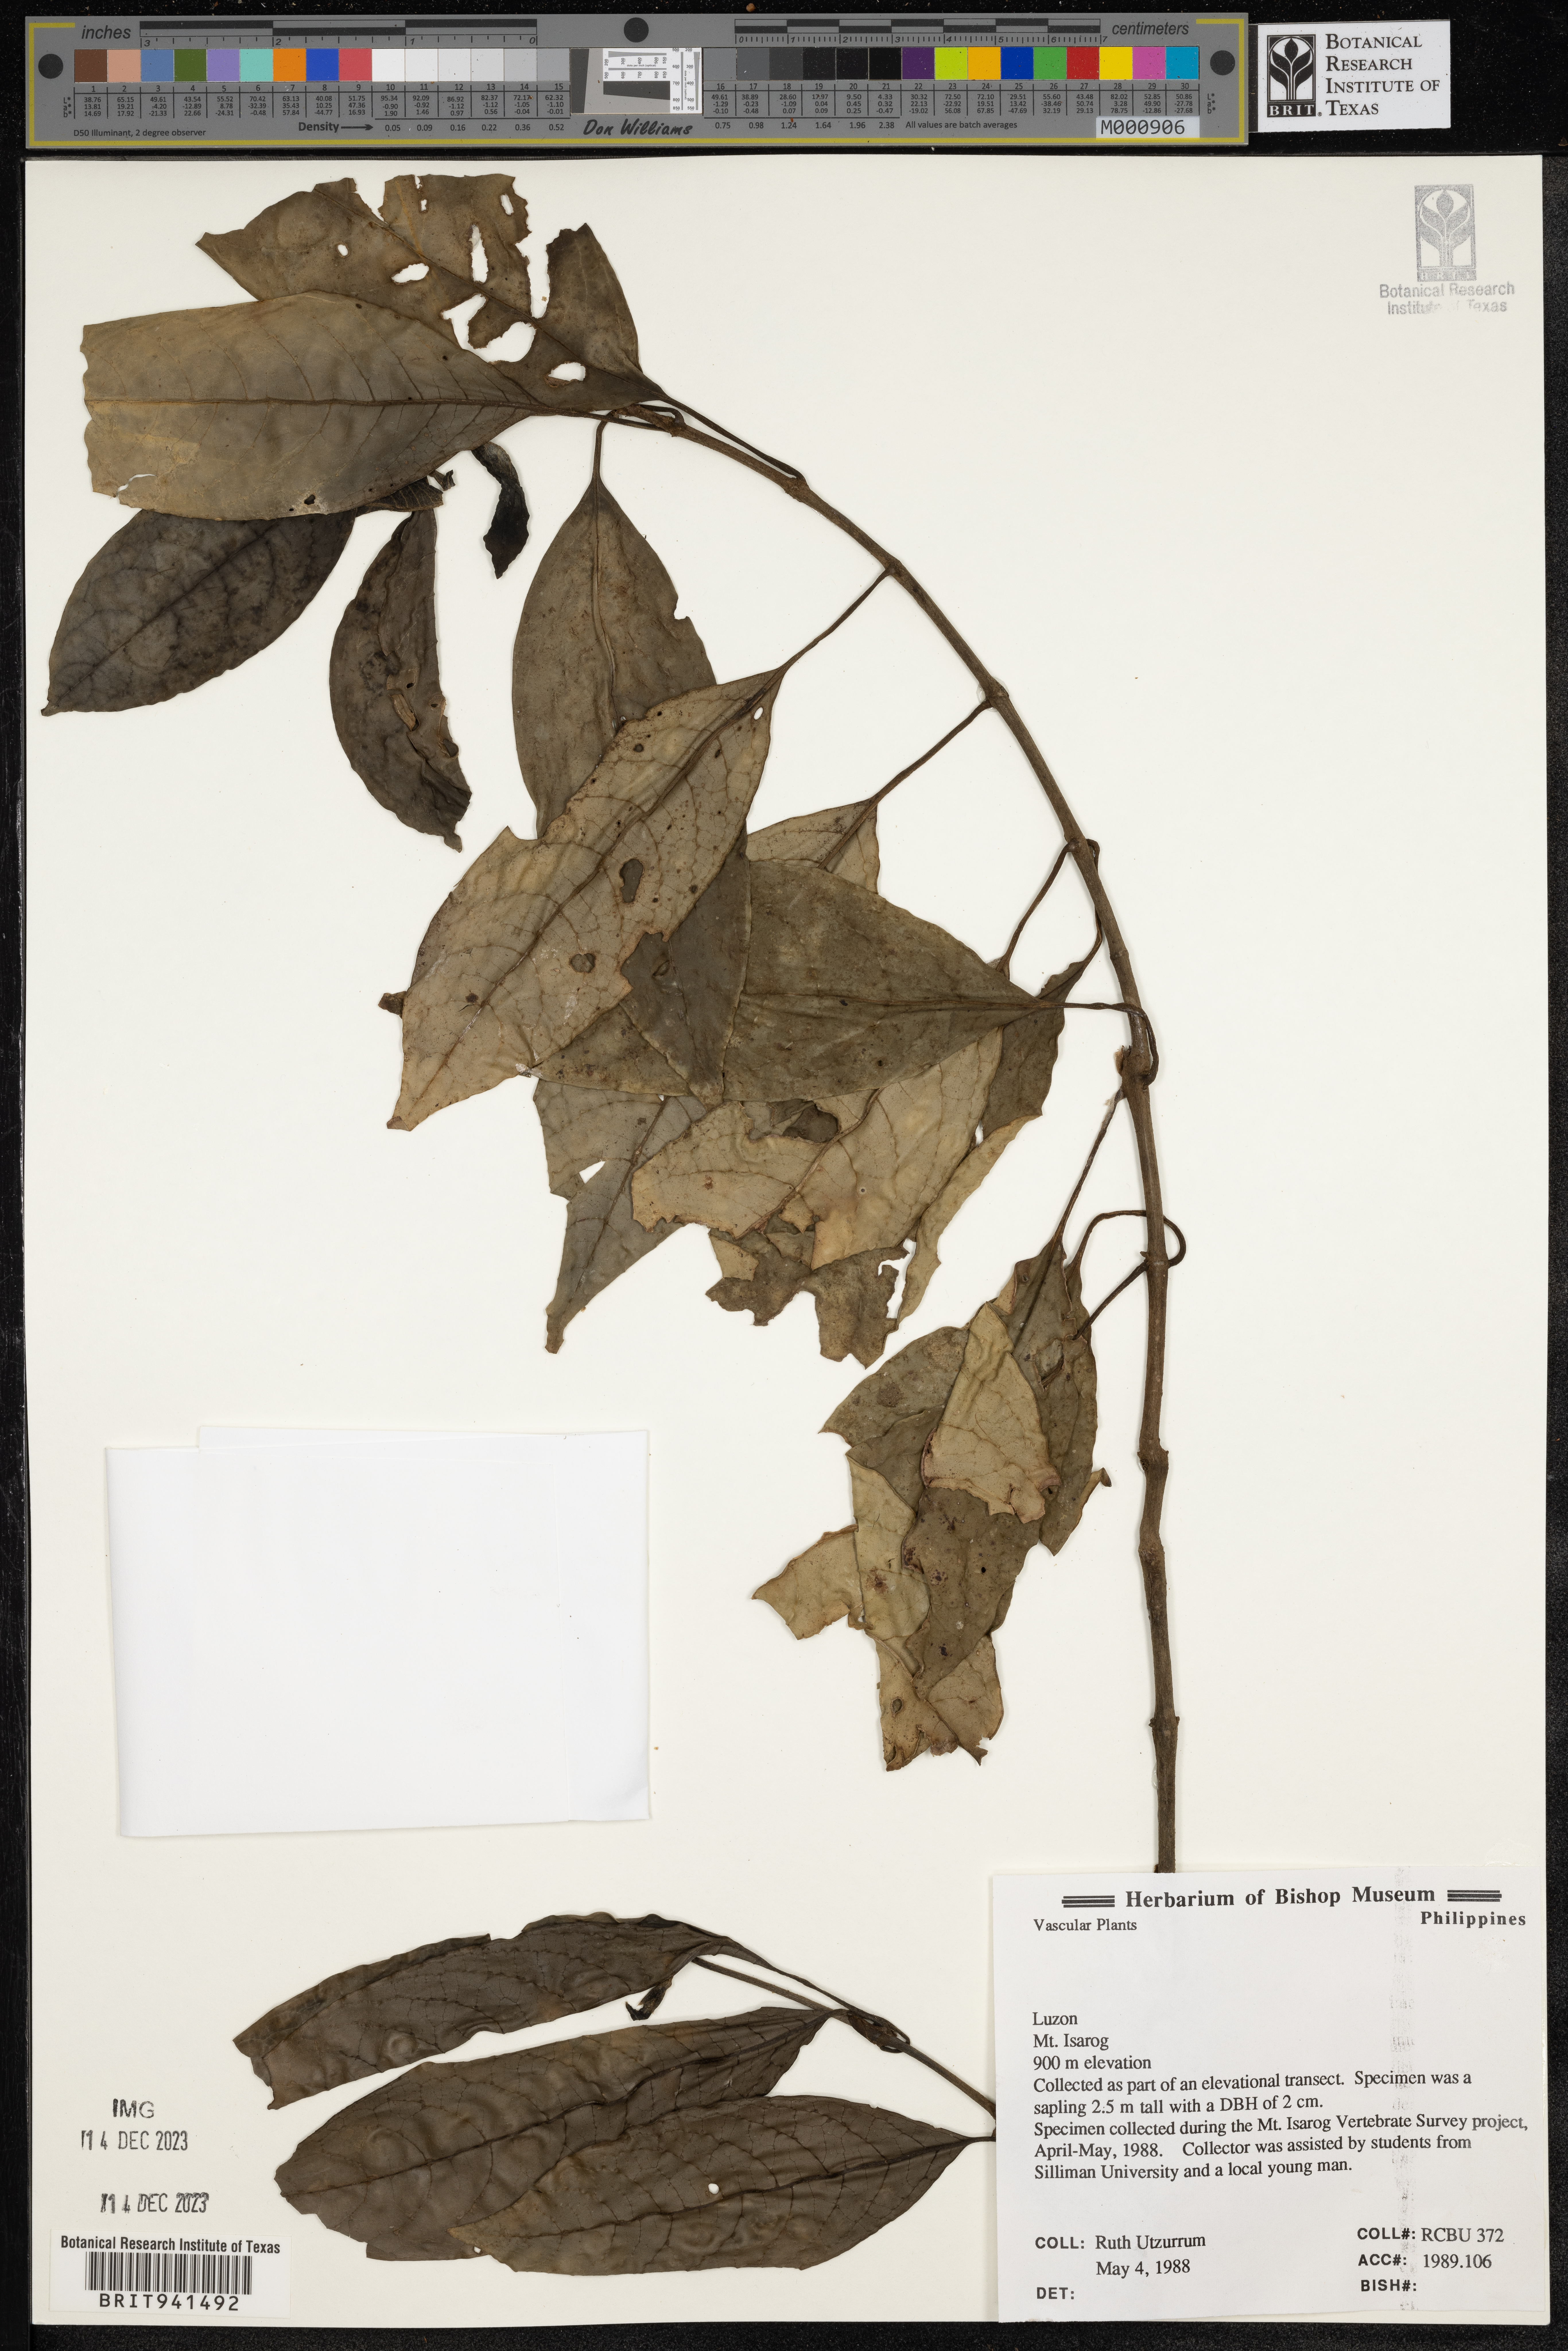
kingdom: Plantae
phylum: Tracheophyta
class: Magnoliopsida
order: Gentianales
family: Rubiaceae
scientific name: Rubiaceae
